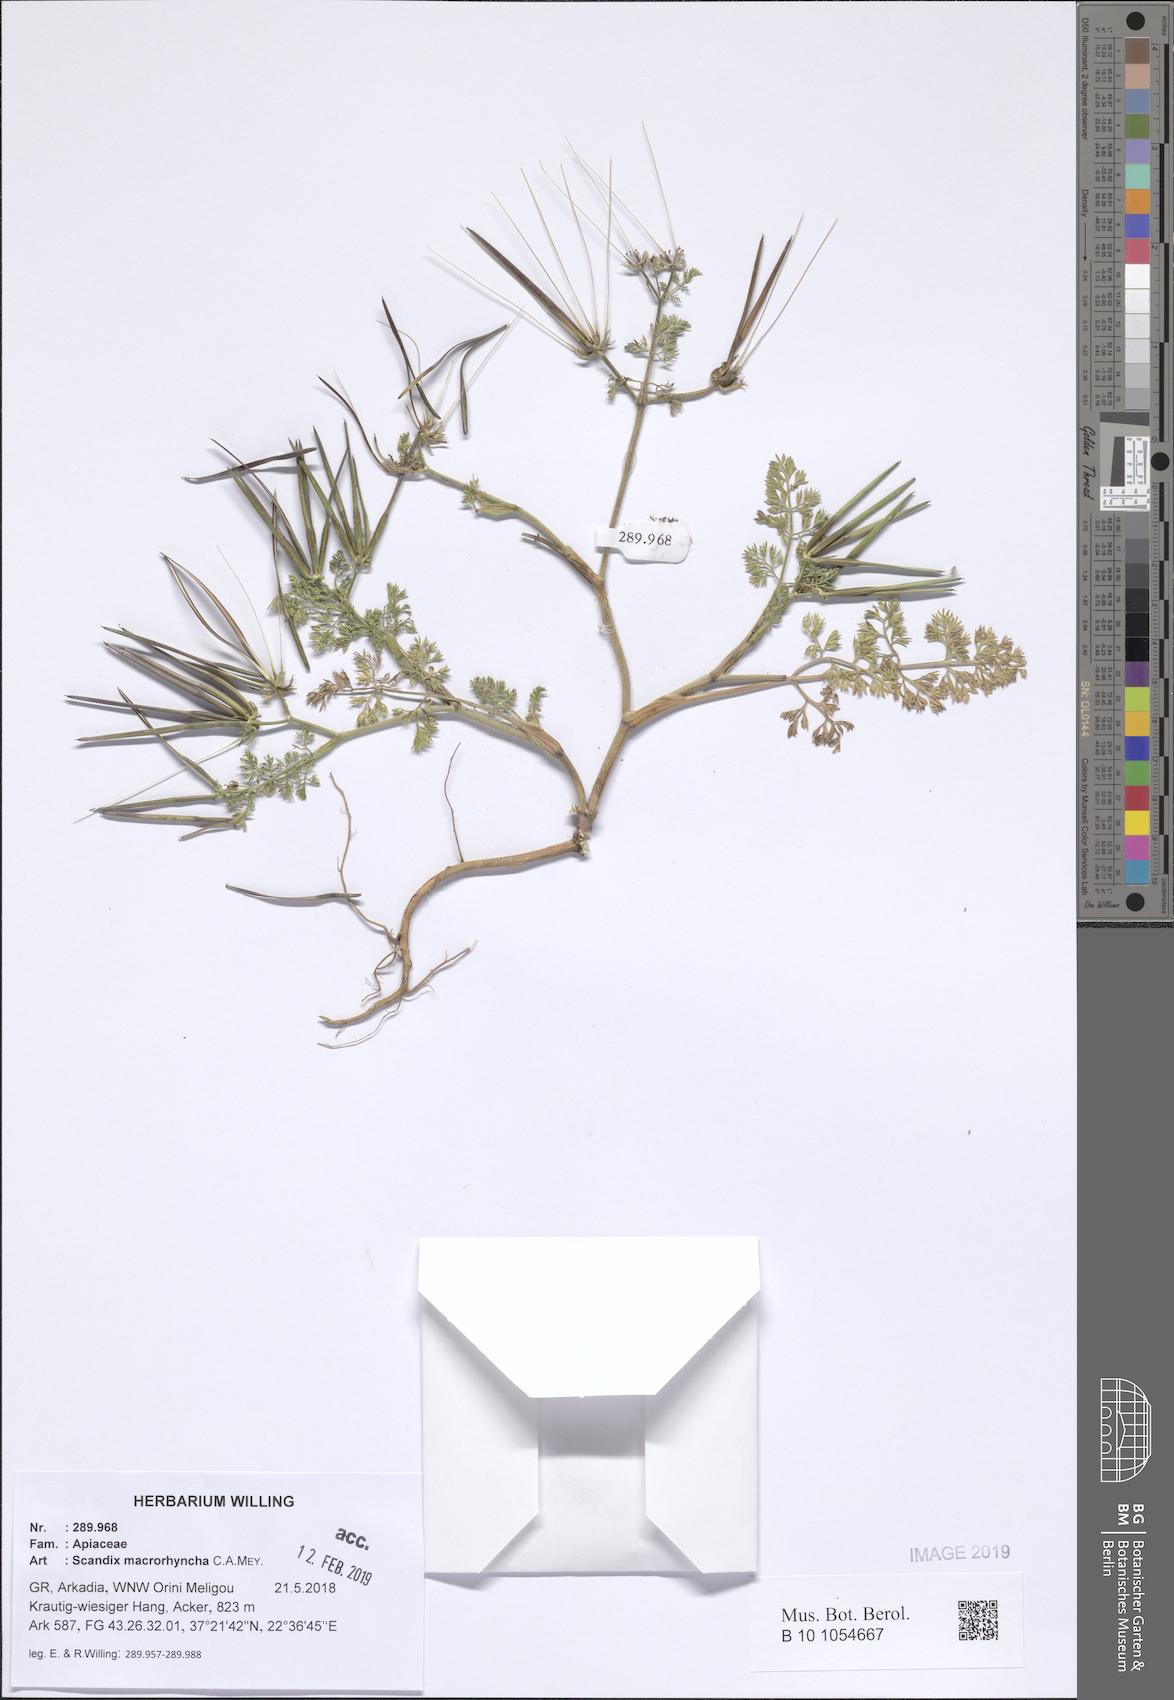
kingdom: Plantae
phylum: Tracheophyta
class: Magnoliopsida
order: Apiales
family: Apiaceae
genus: Scandix
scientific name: Scandix macrorhyncha
